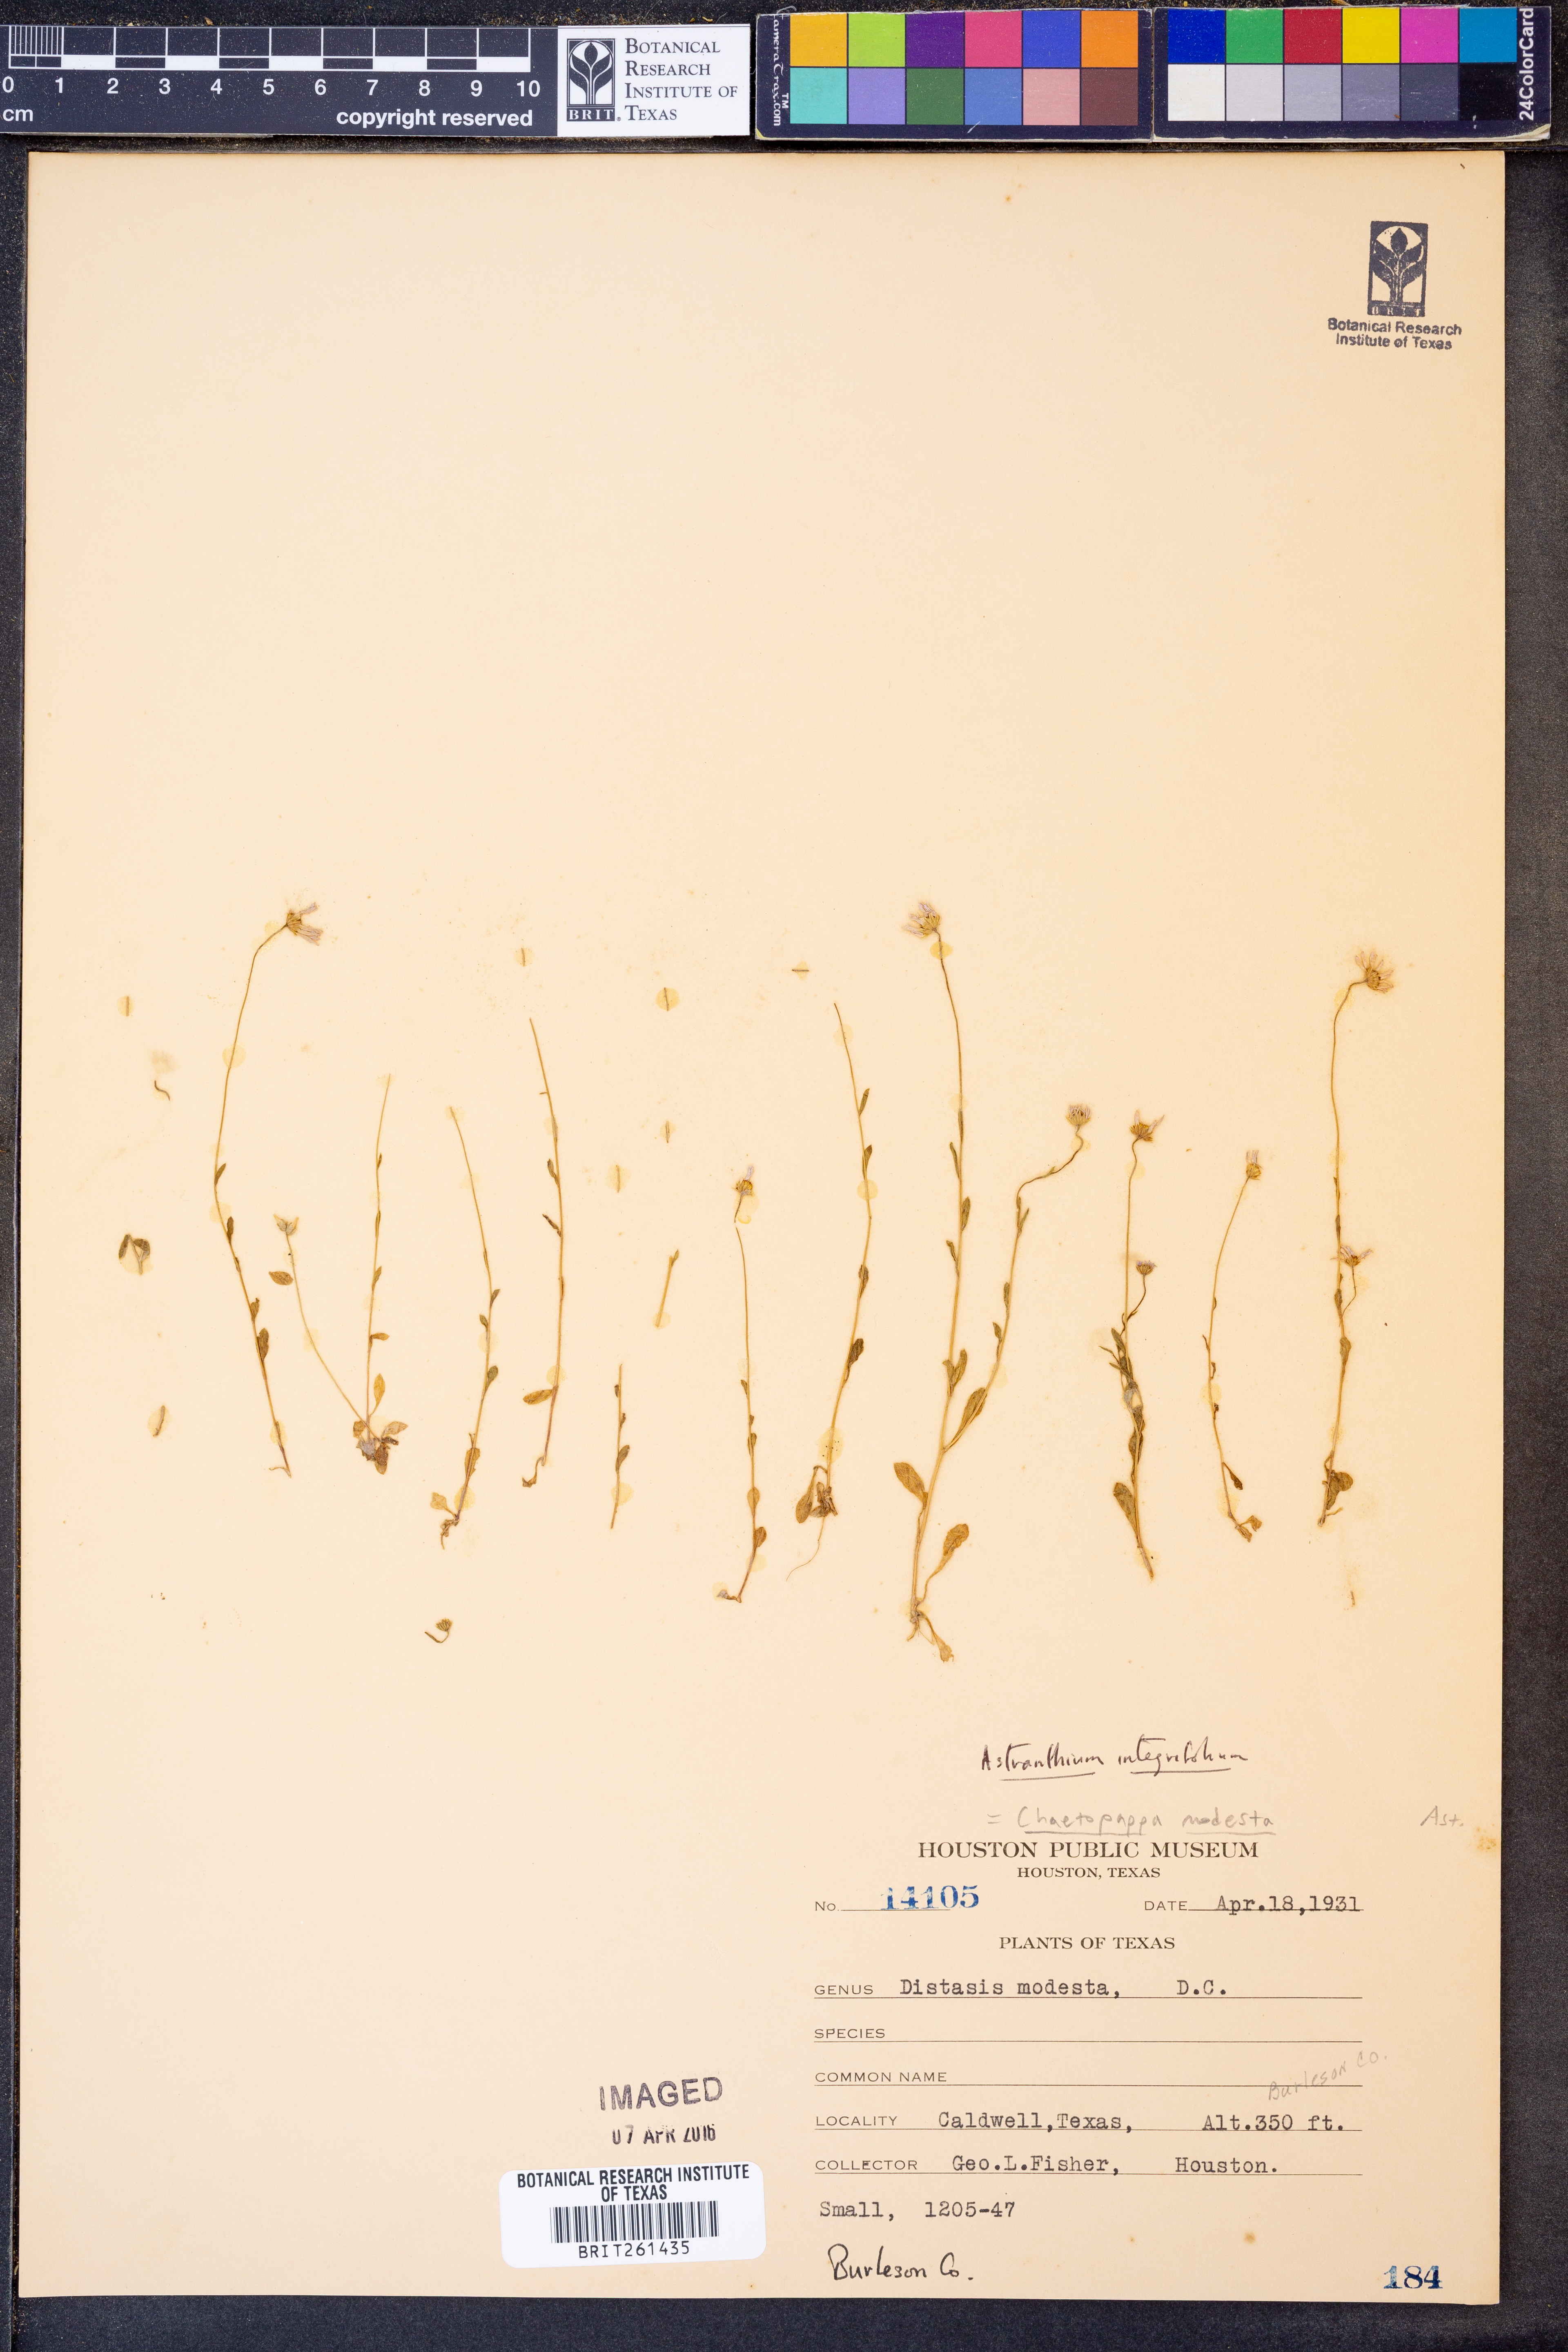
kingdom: Plantae
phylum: Tracheophyta
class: Magnoliopsida
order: Asterales
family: Asteraceae
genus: Astranthium
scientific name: Astranthium integrifolium
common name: Western daisy
